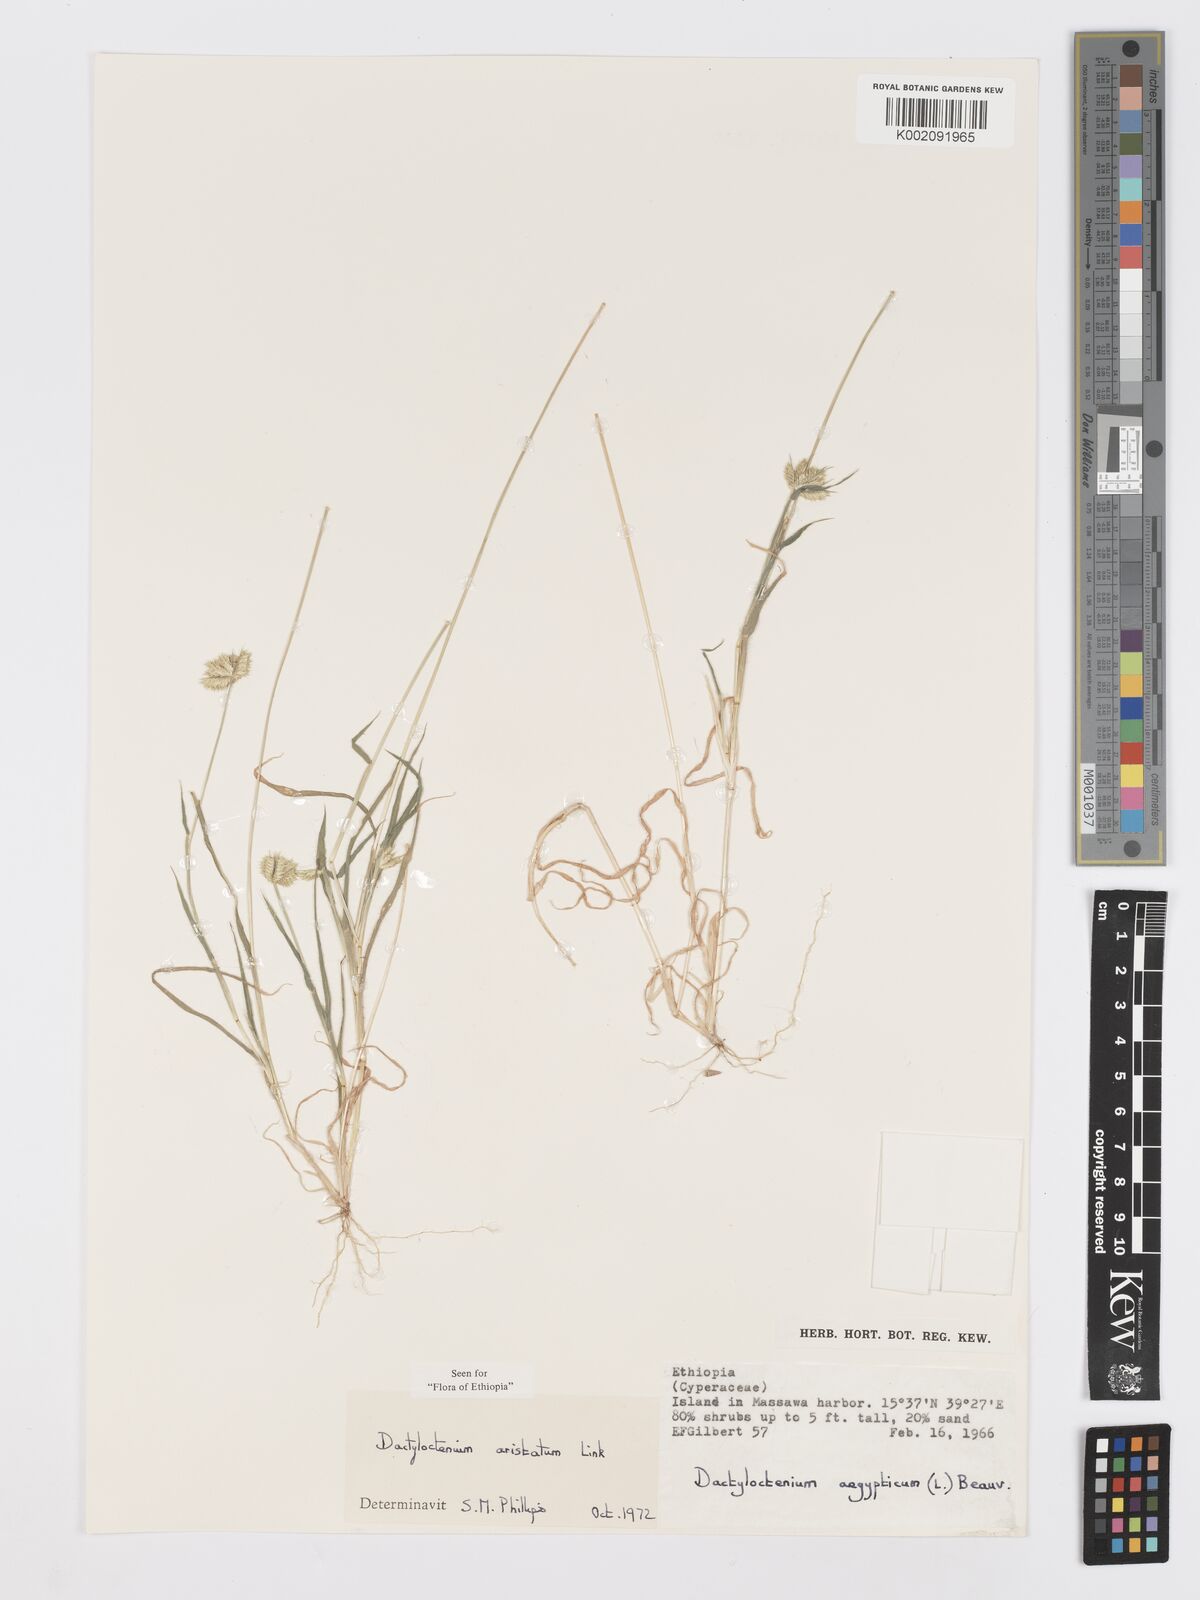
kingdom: Plantae
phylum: Tracheophyta
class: Liliopsida
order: Poales
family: Poaceae
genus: Dactyloctenium
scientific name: Dactyloctenium aristatum
